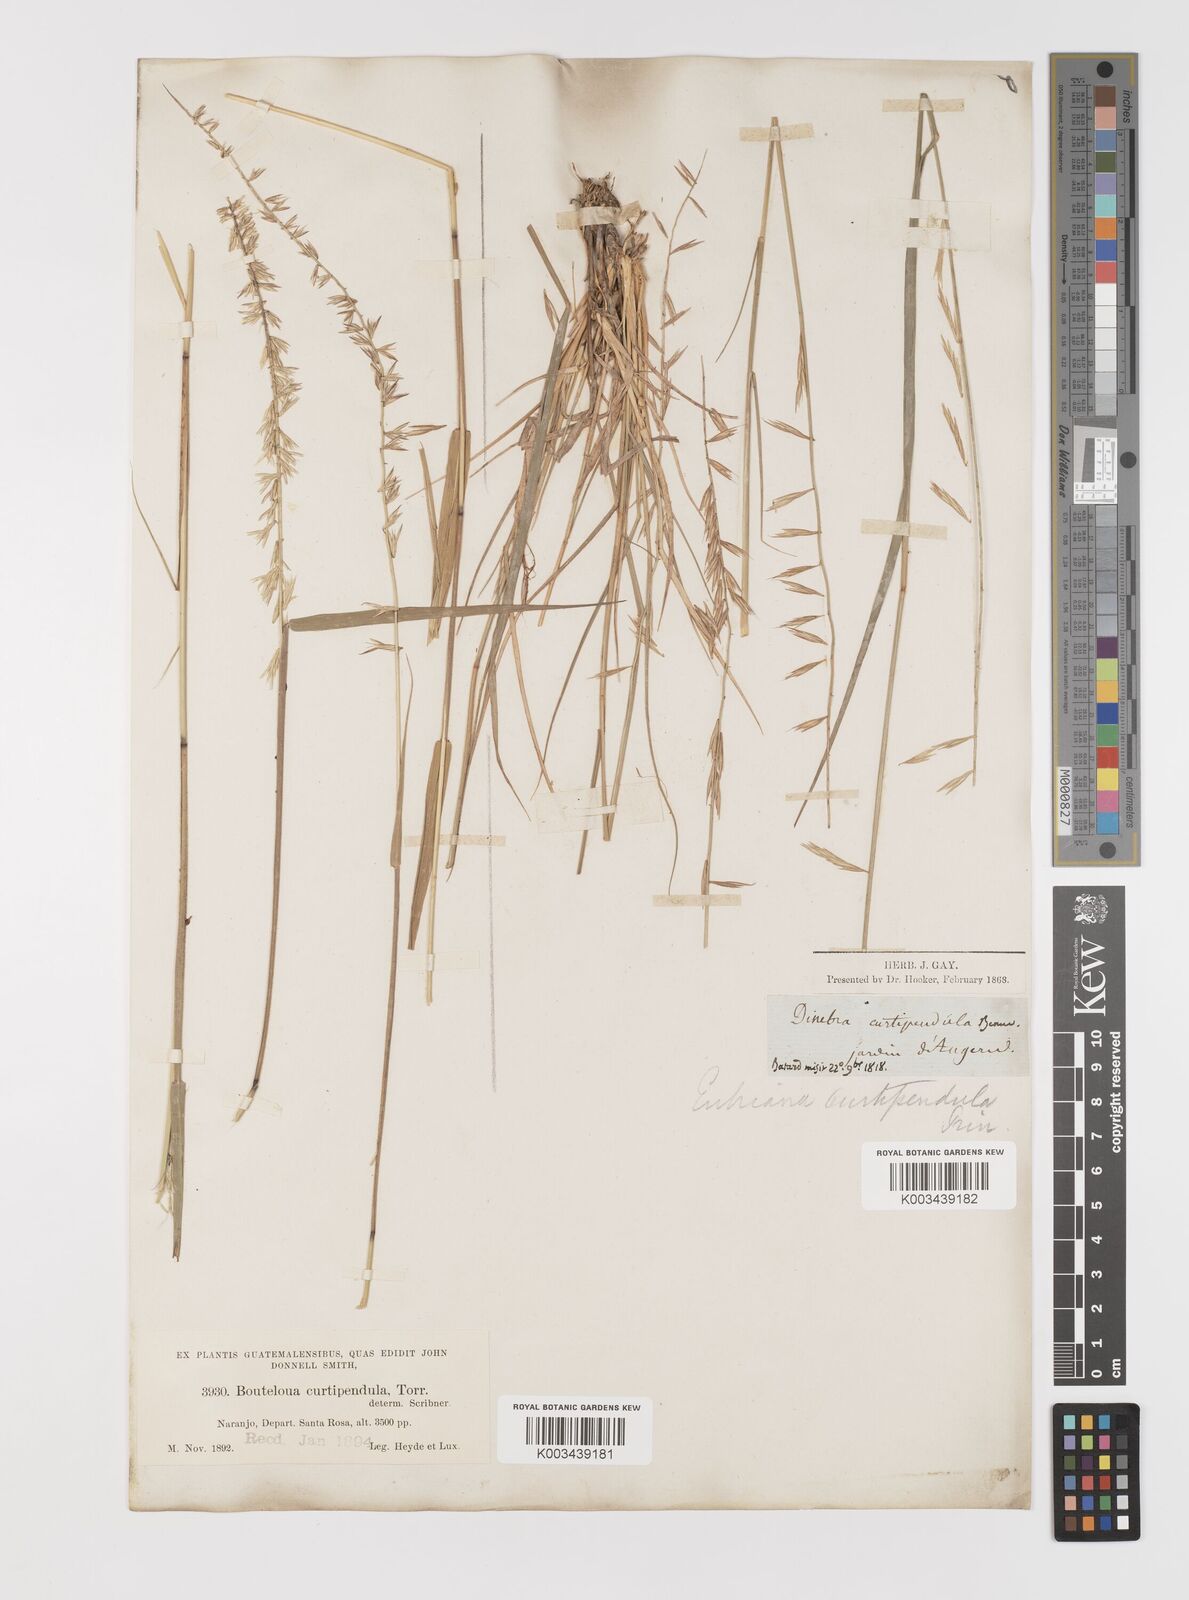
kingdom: Plantae
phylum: Tracheophyta
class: Liliopsida
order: Poales
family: Poaceae
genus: Bouteloua
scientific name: Bouteloua curtipendula
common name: Side-oats grama
